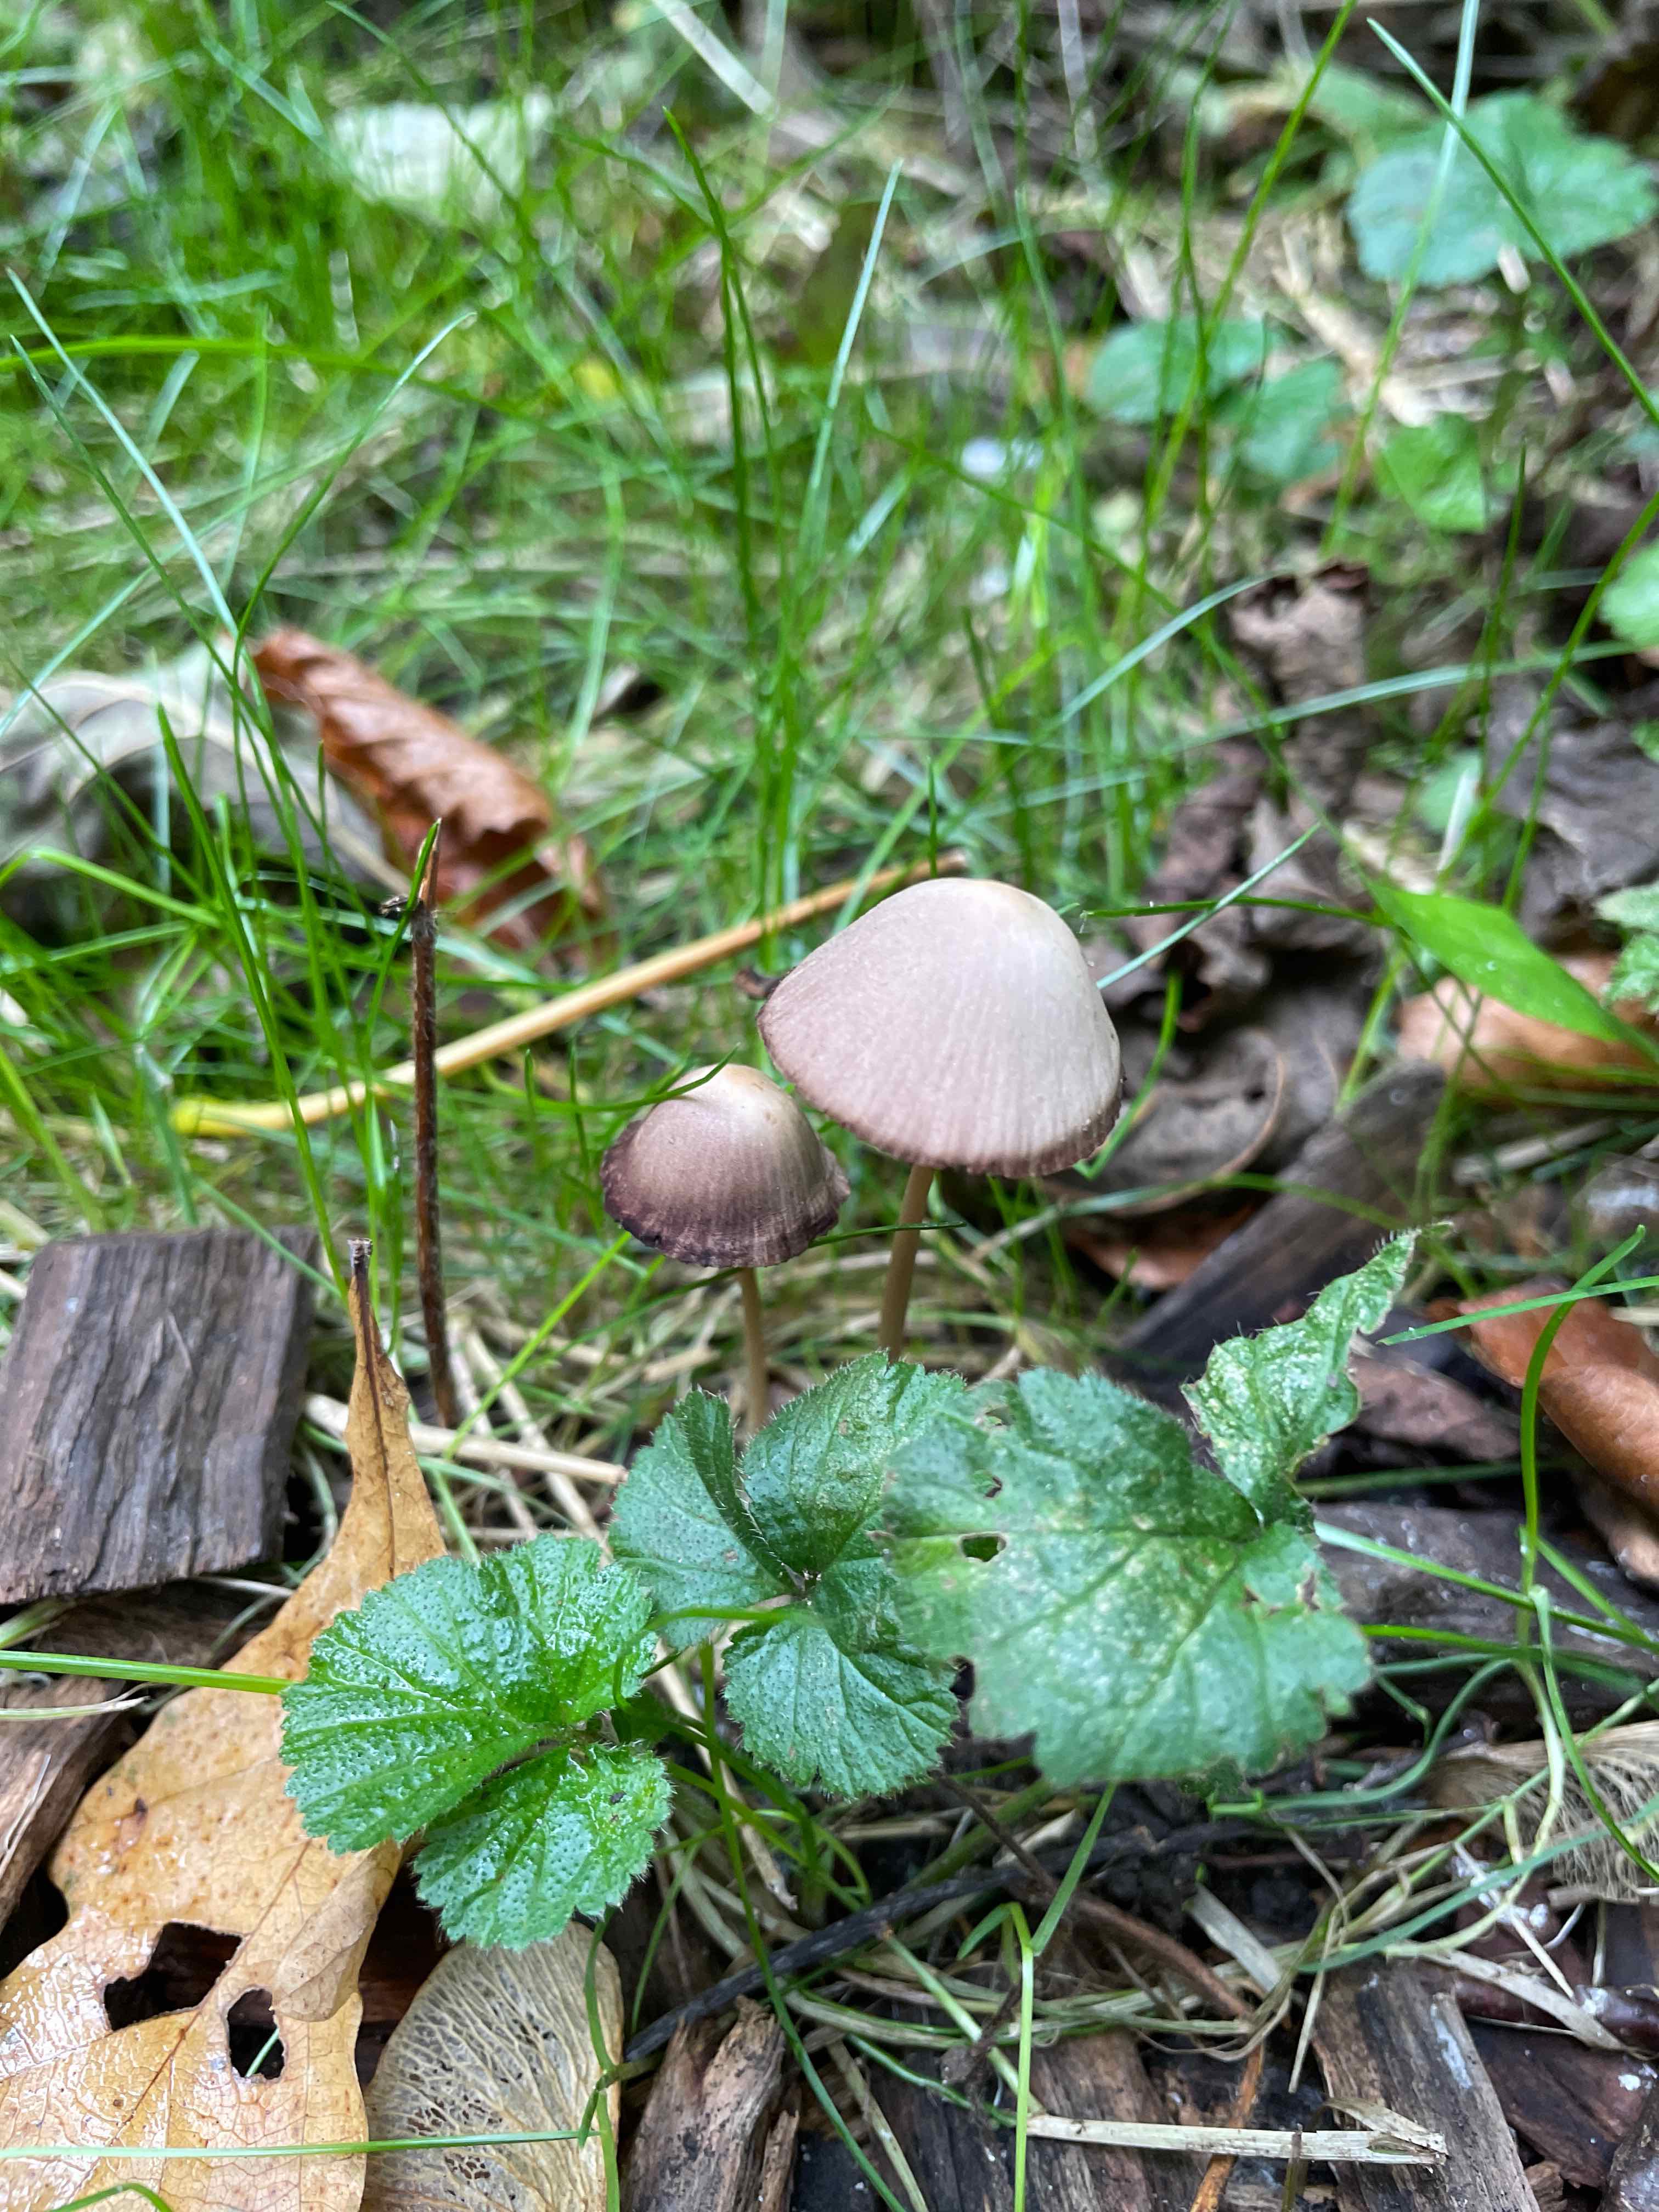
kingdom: Fungi
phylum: Basidiomycota
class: Agaricomycetes
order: Agaricales
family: Psathyrellaceae
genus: Psathyrella
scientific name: Psathyrella
